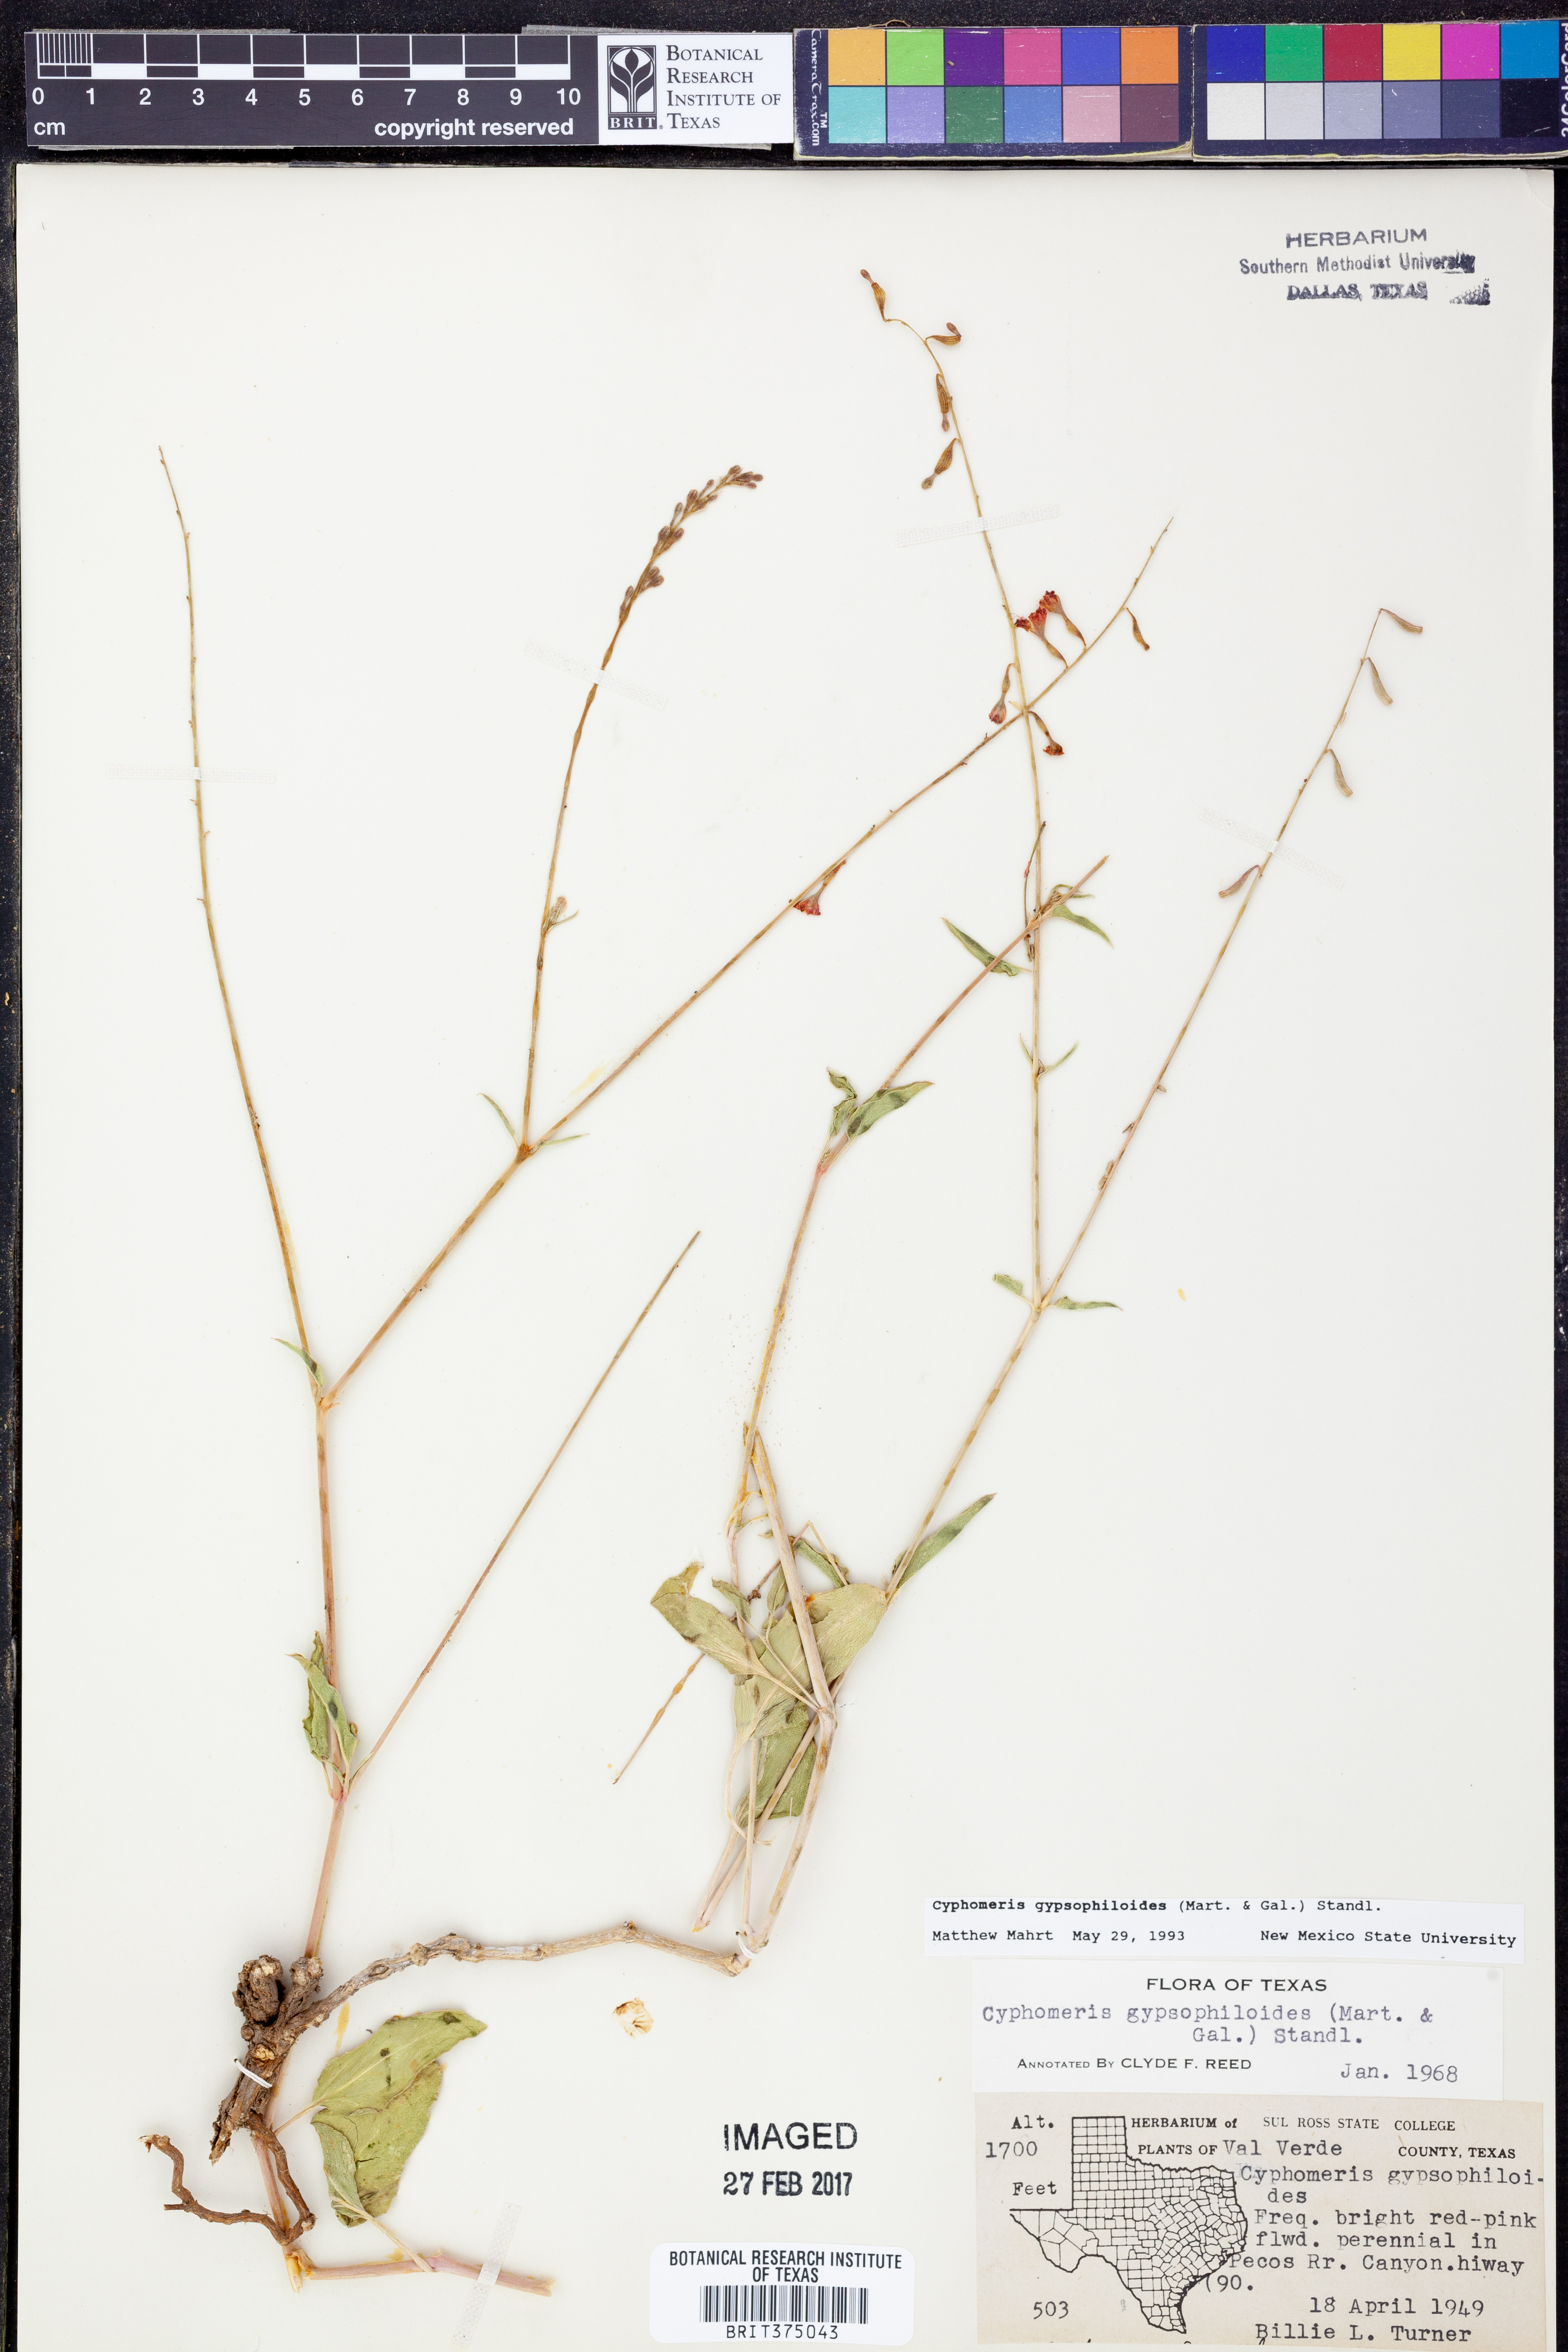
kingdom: Plantae
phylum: Tracheophyta
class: Magnoliopsida
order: Caryophyllales
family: Nyctaginaceae
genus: Cyphomeris
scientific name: Cyphomeris gypsophiloides
